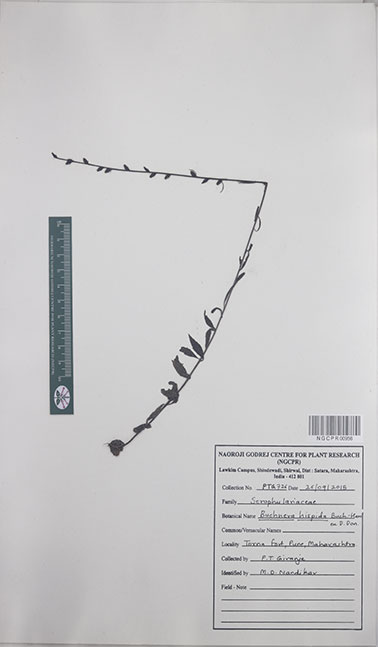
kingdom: Plantae
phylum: Tracheophyta
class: Magnoliopsida
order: Lamiales
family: Orobanchaceae
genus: Buchnera
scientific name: Buchnera hispida
